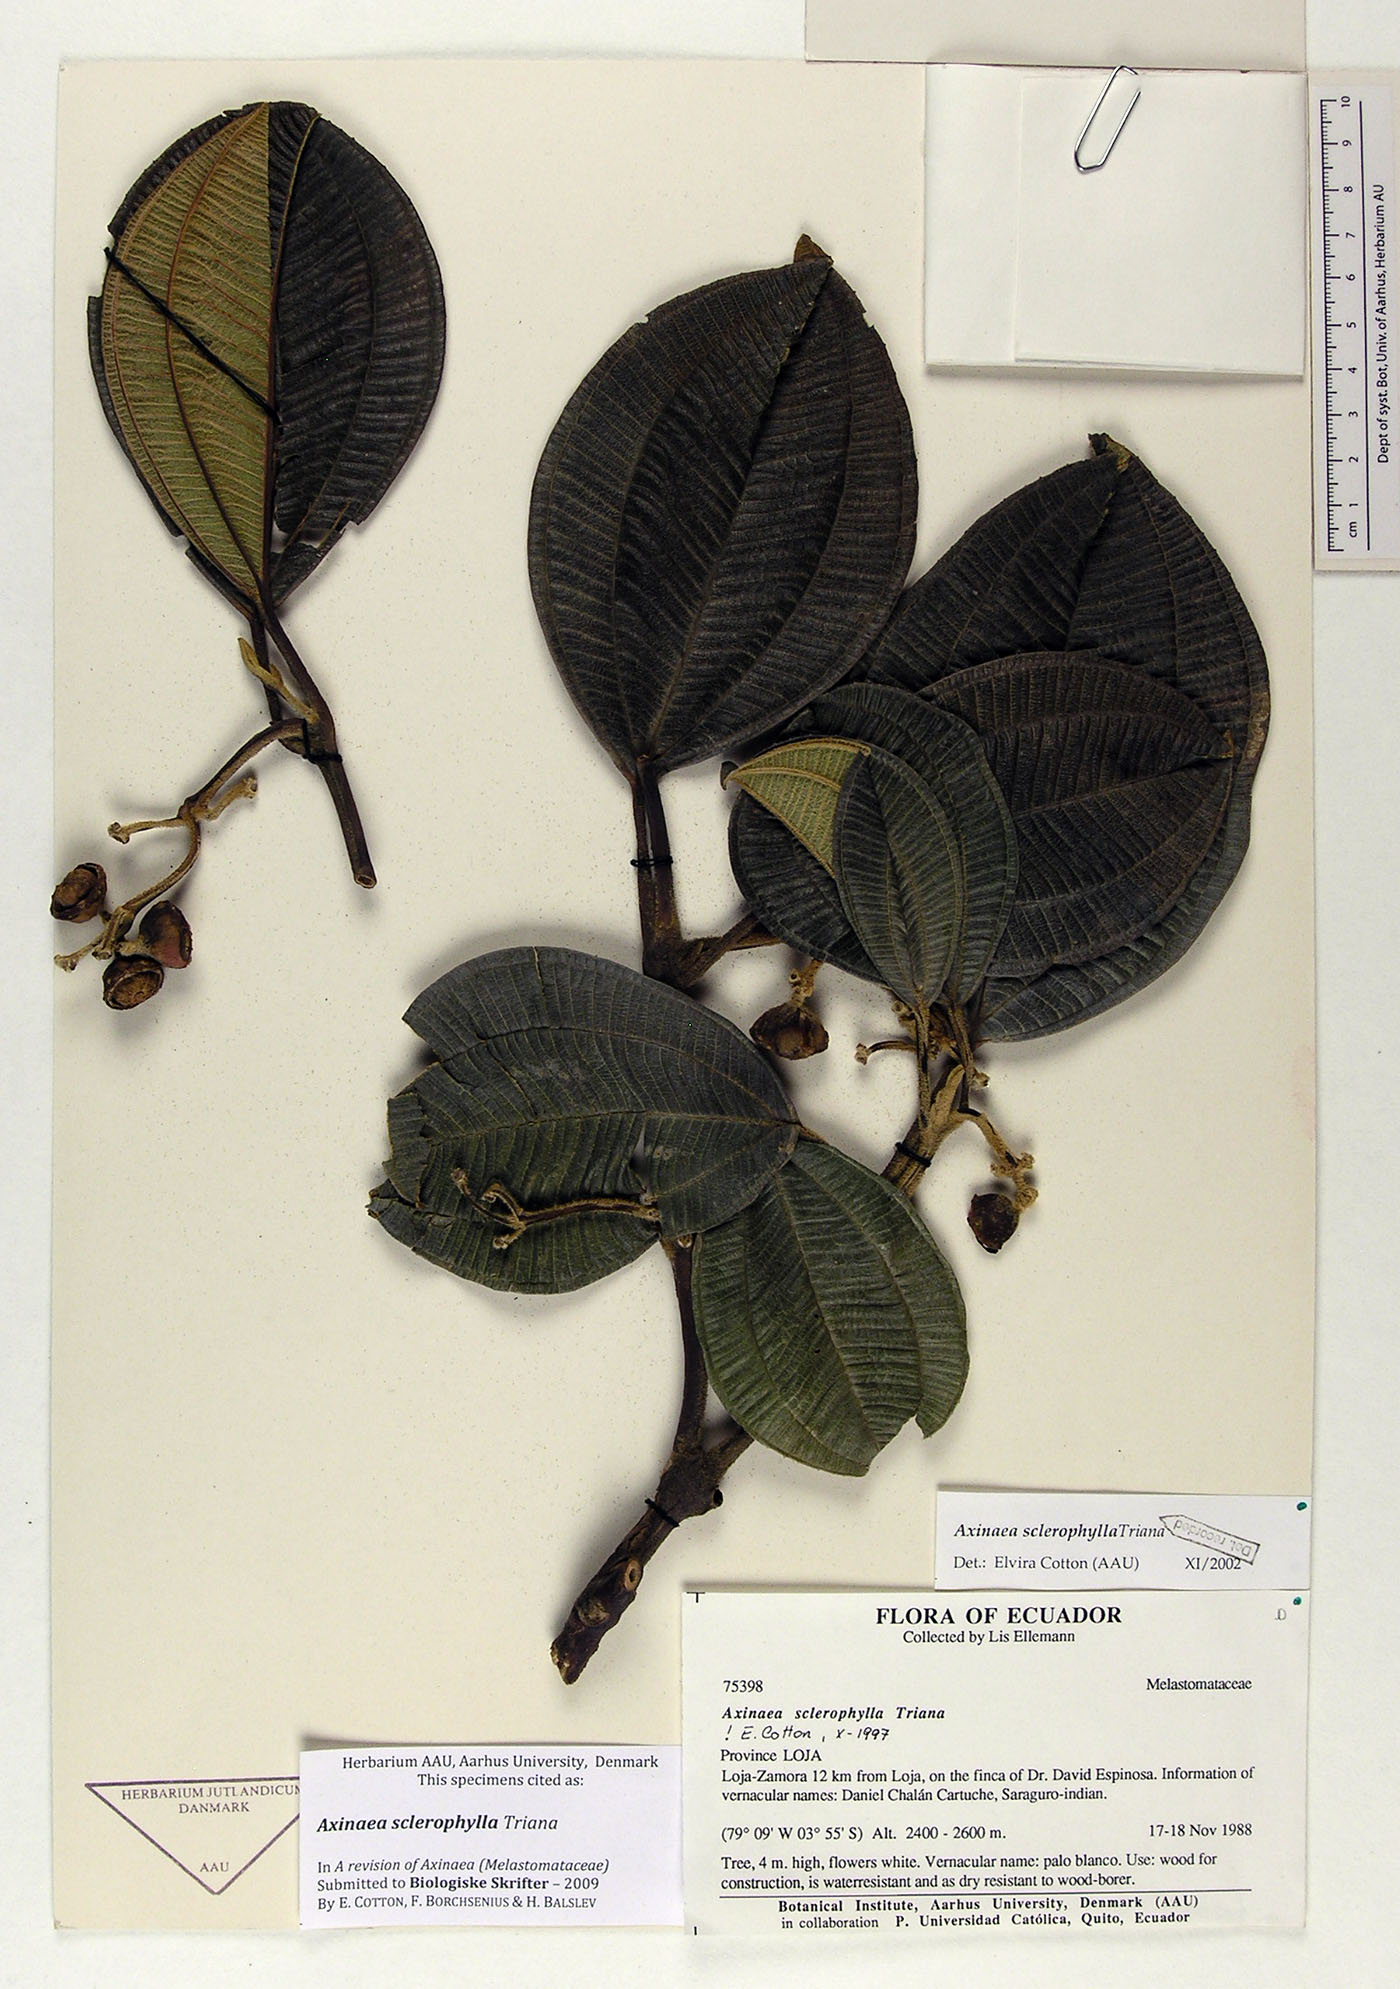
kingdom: Plantae
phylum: Tracheophyta
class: Magnoliopsida
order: Myrtales
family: Melastomataceae
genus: Axinaea
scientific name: Axinaea sclerophylla
